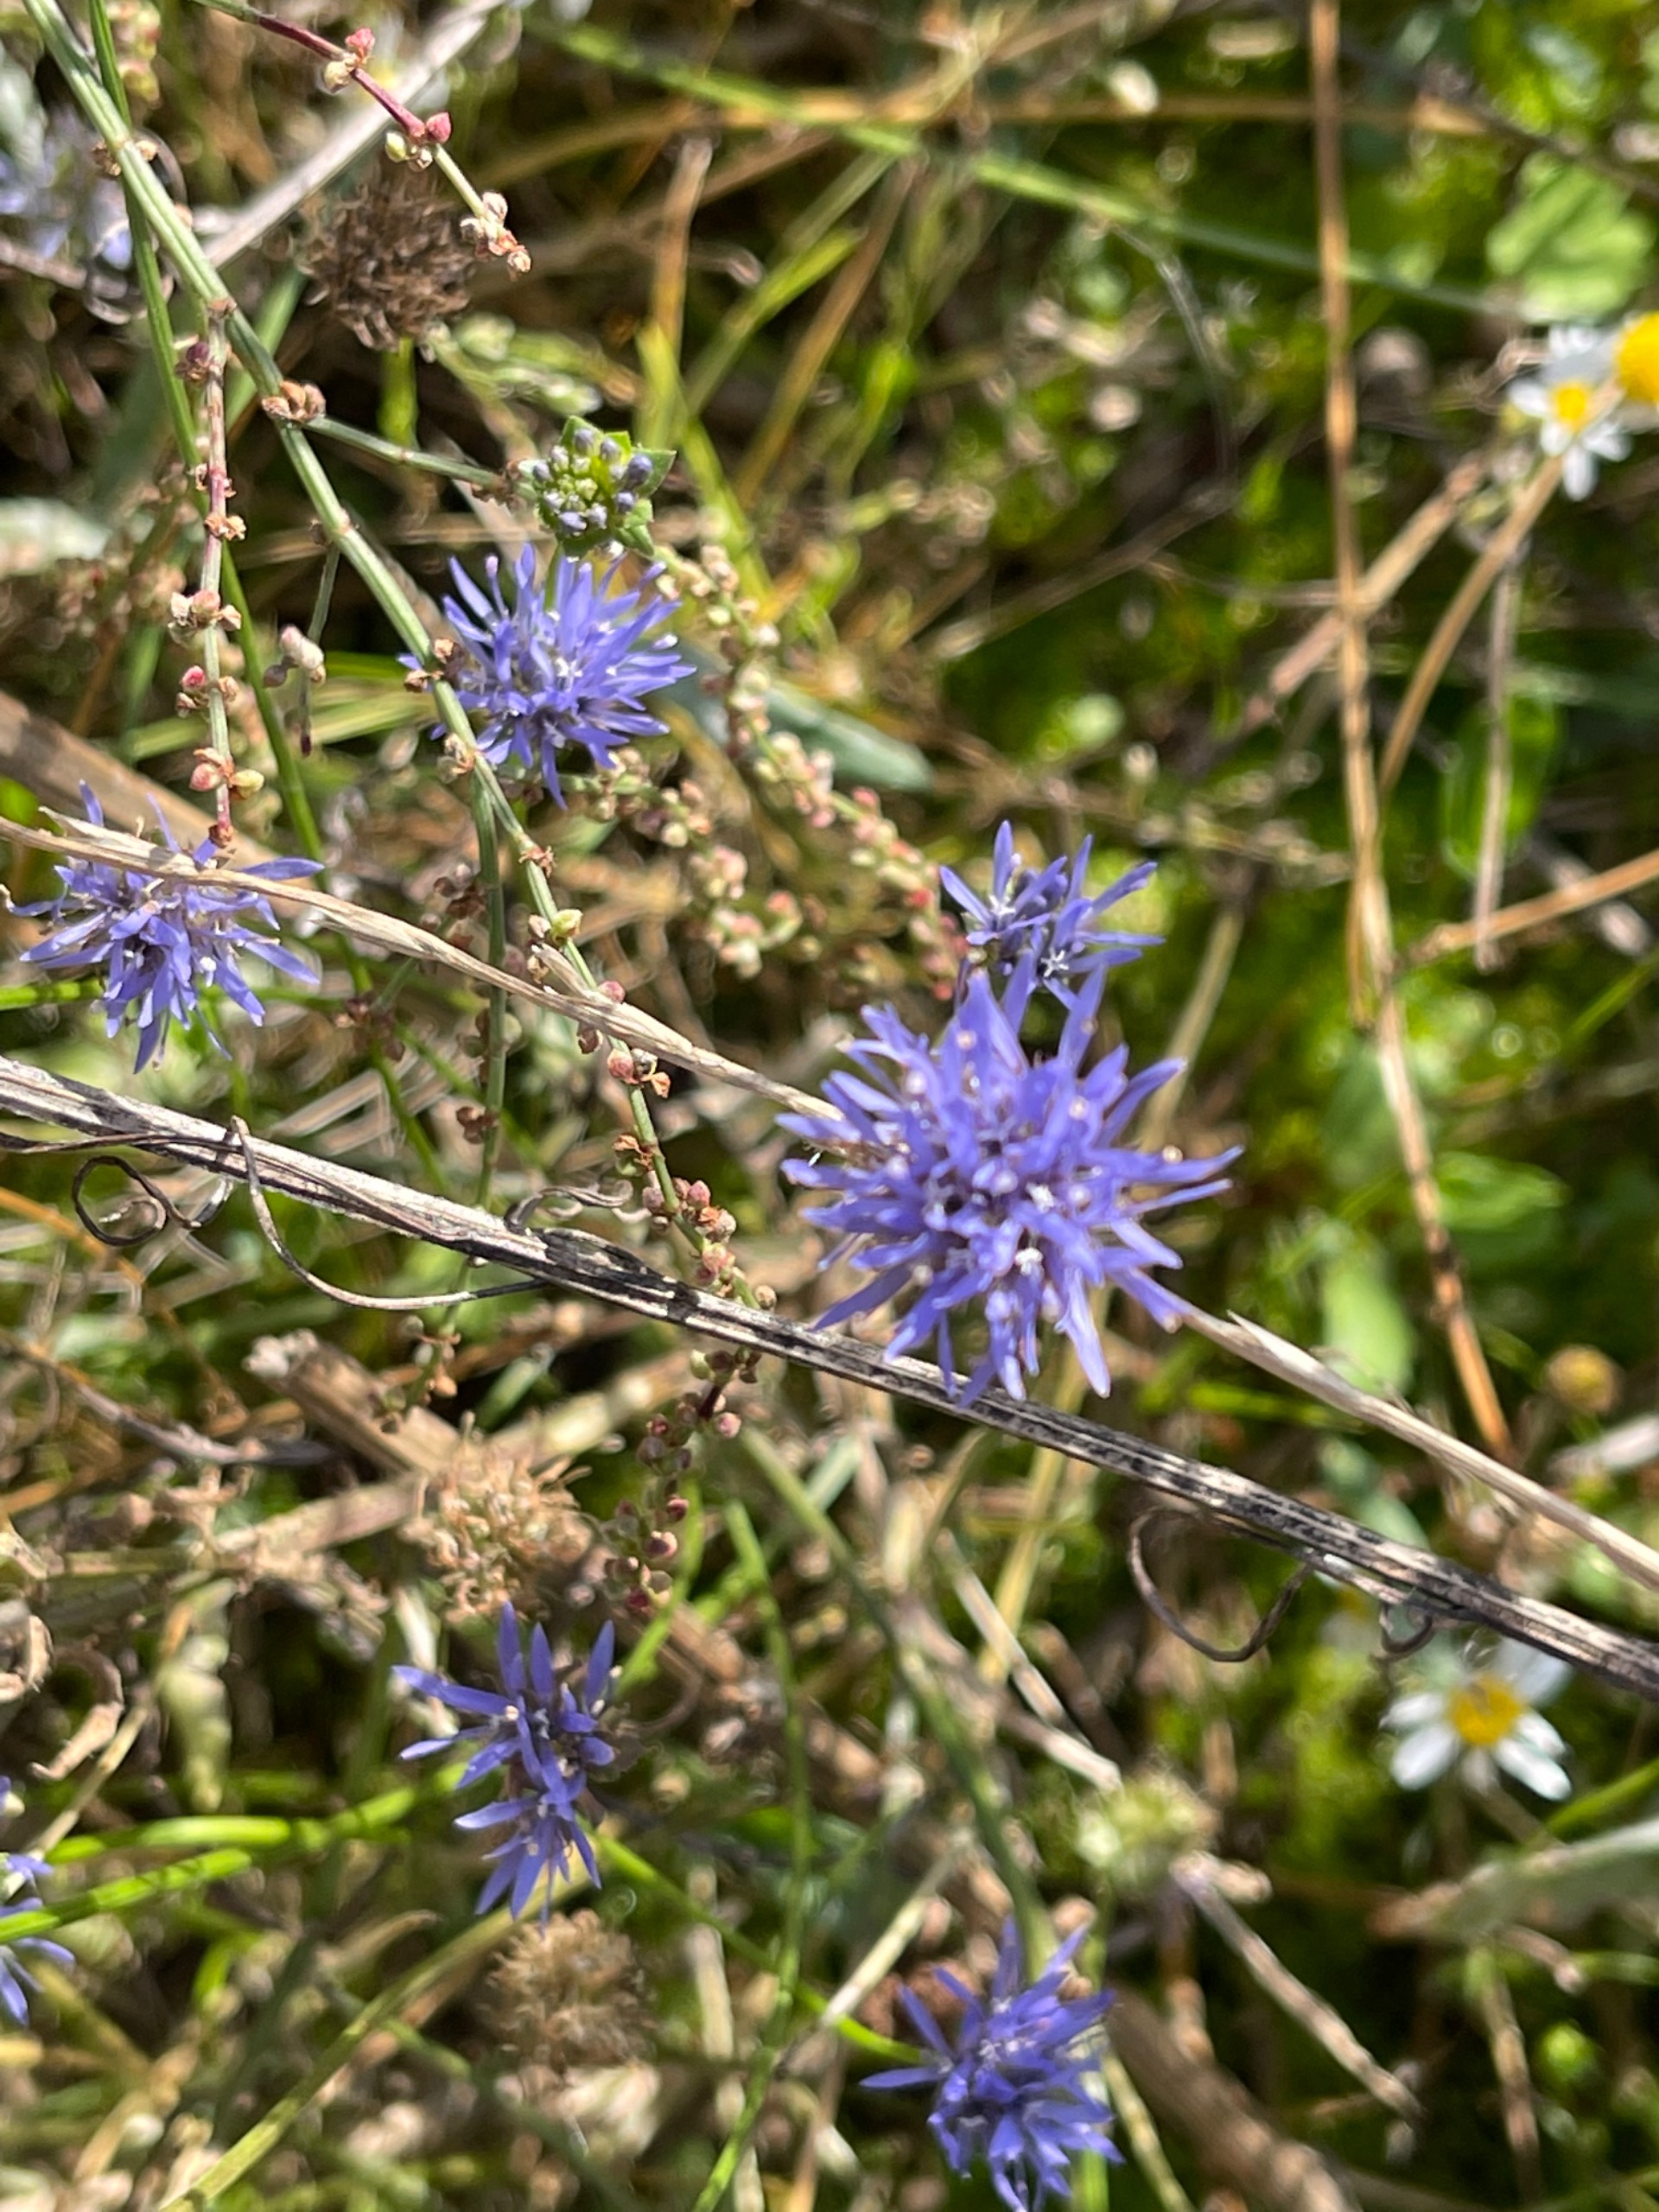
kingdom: Plantae
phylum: Tracheophyta
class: Magnoliopsida
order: Asterales
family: Campanulaceae
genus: Jasione
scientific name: Jasione montana
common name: Blåmunke
